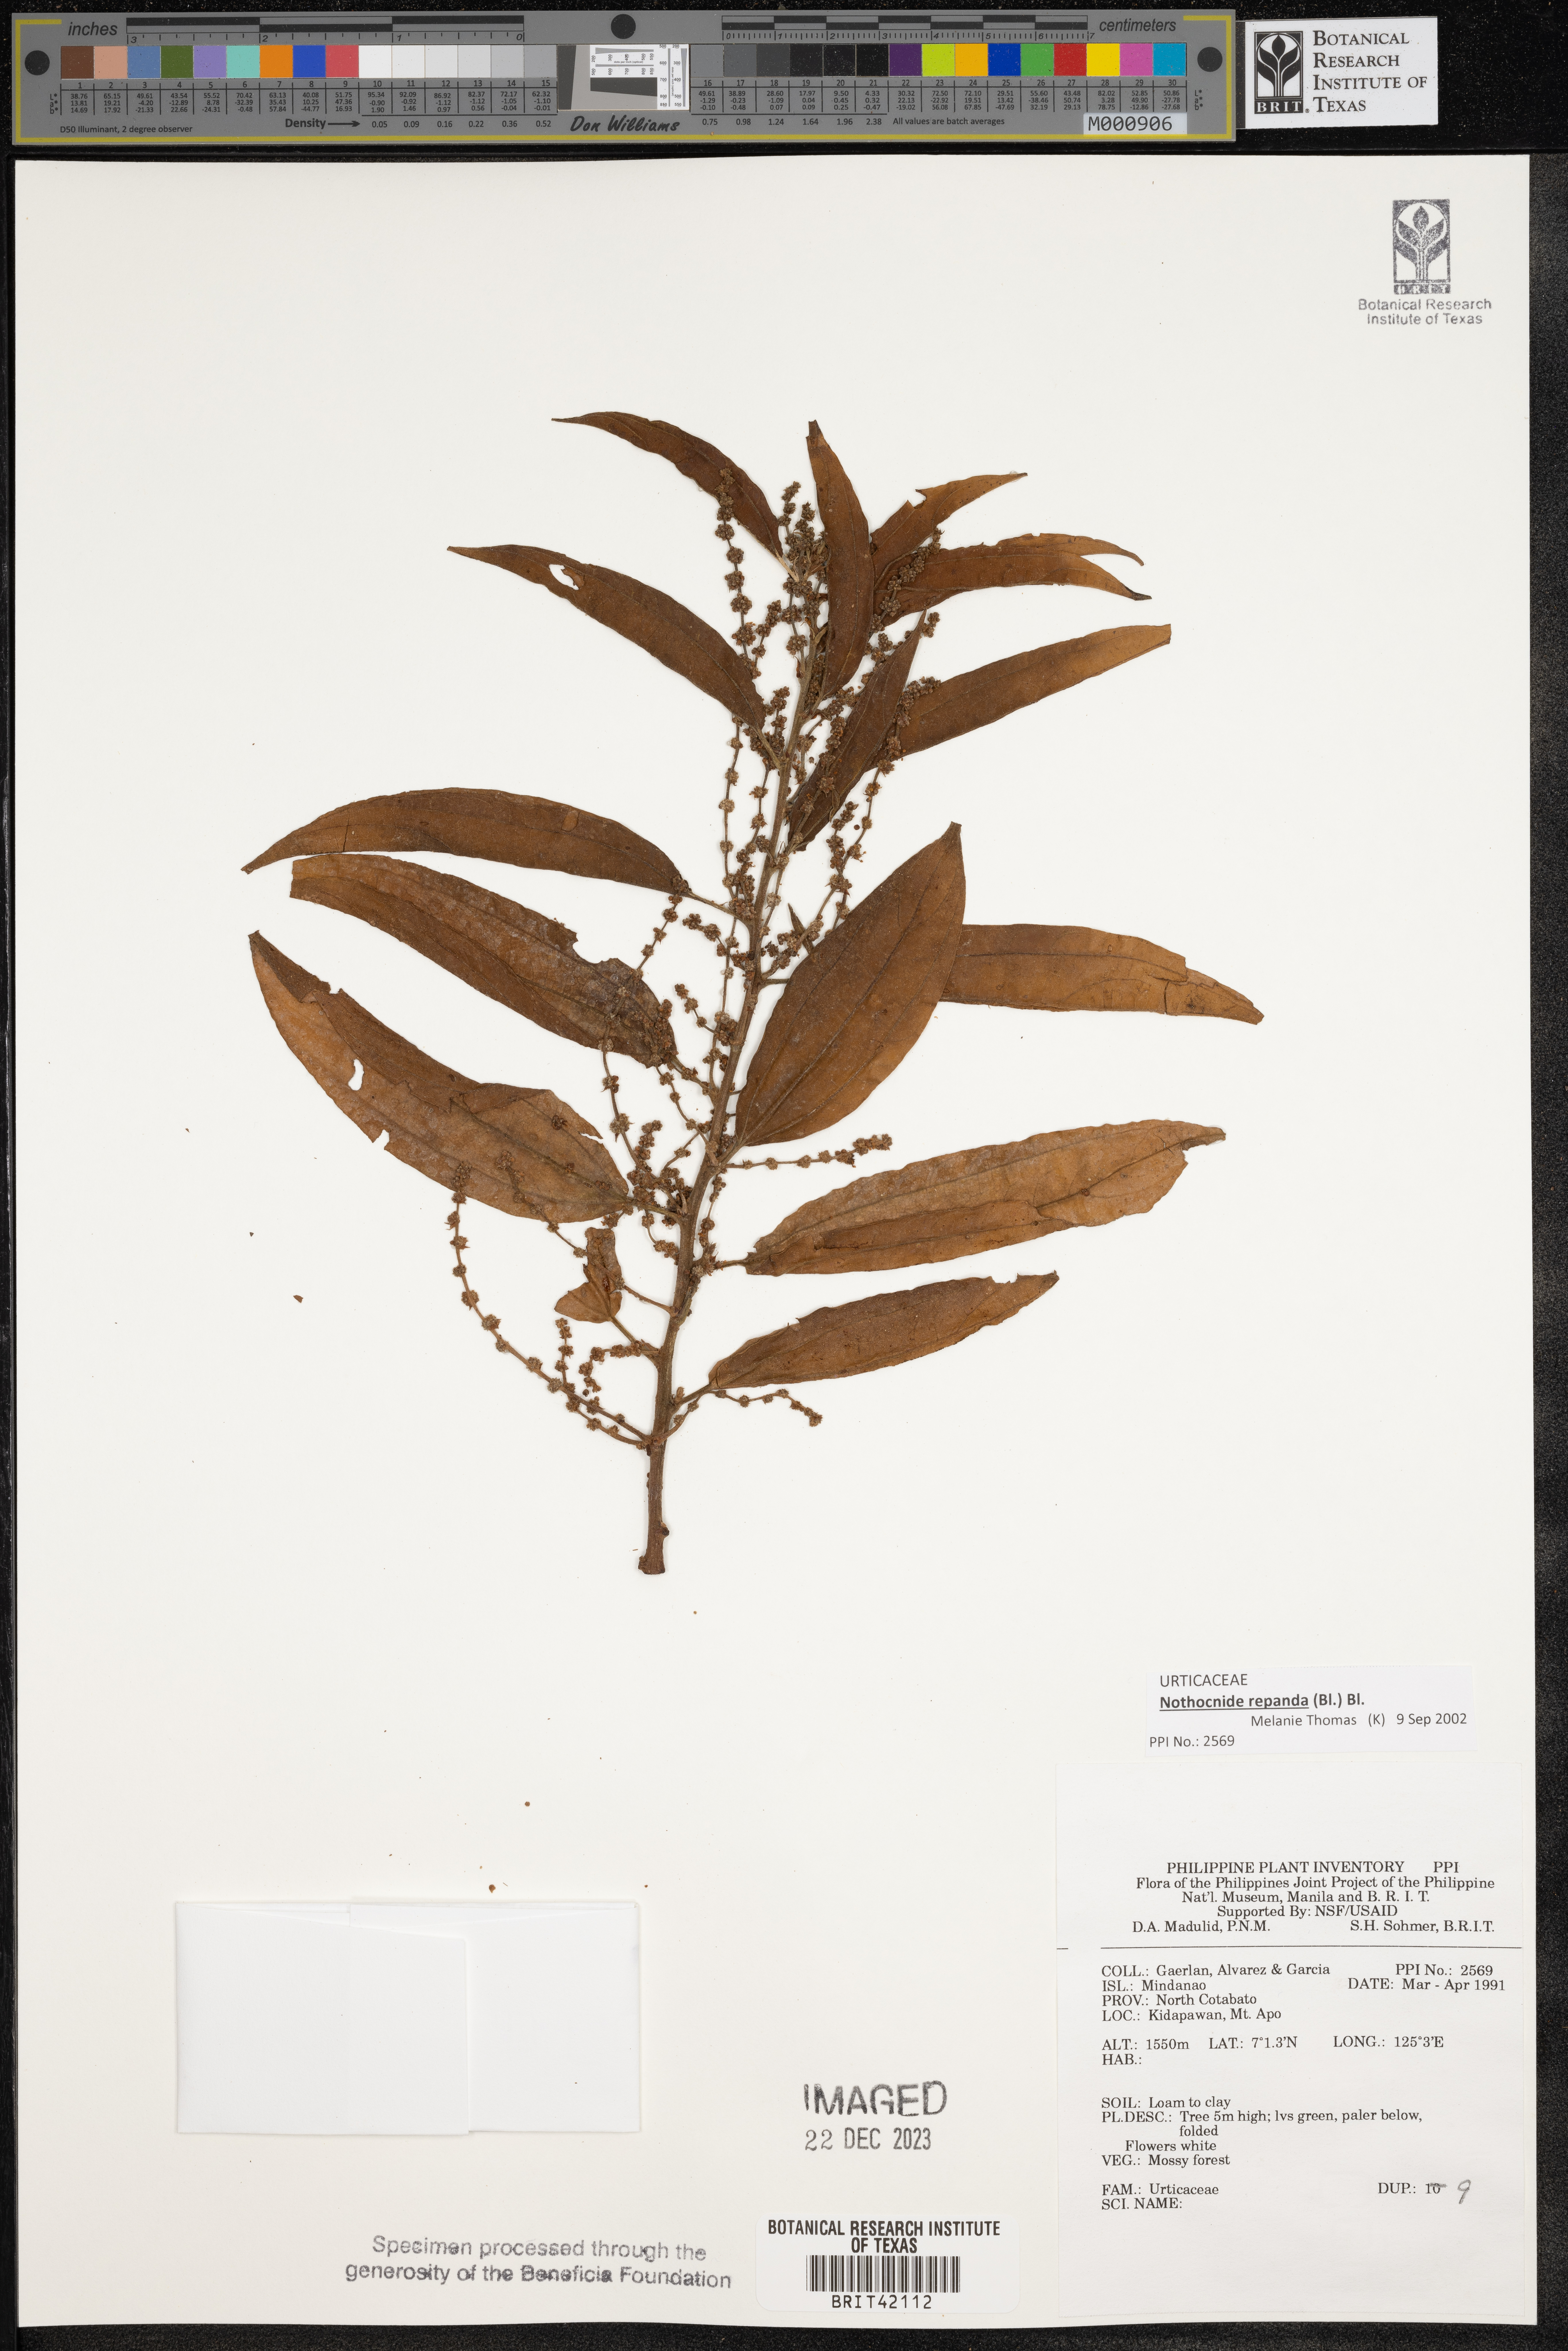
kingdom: Plantae
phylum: Tracheophyta
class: Magnoliopsida
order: Rosales
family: Urticaceae
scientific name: Urticaceae
